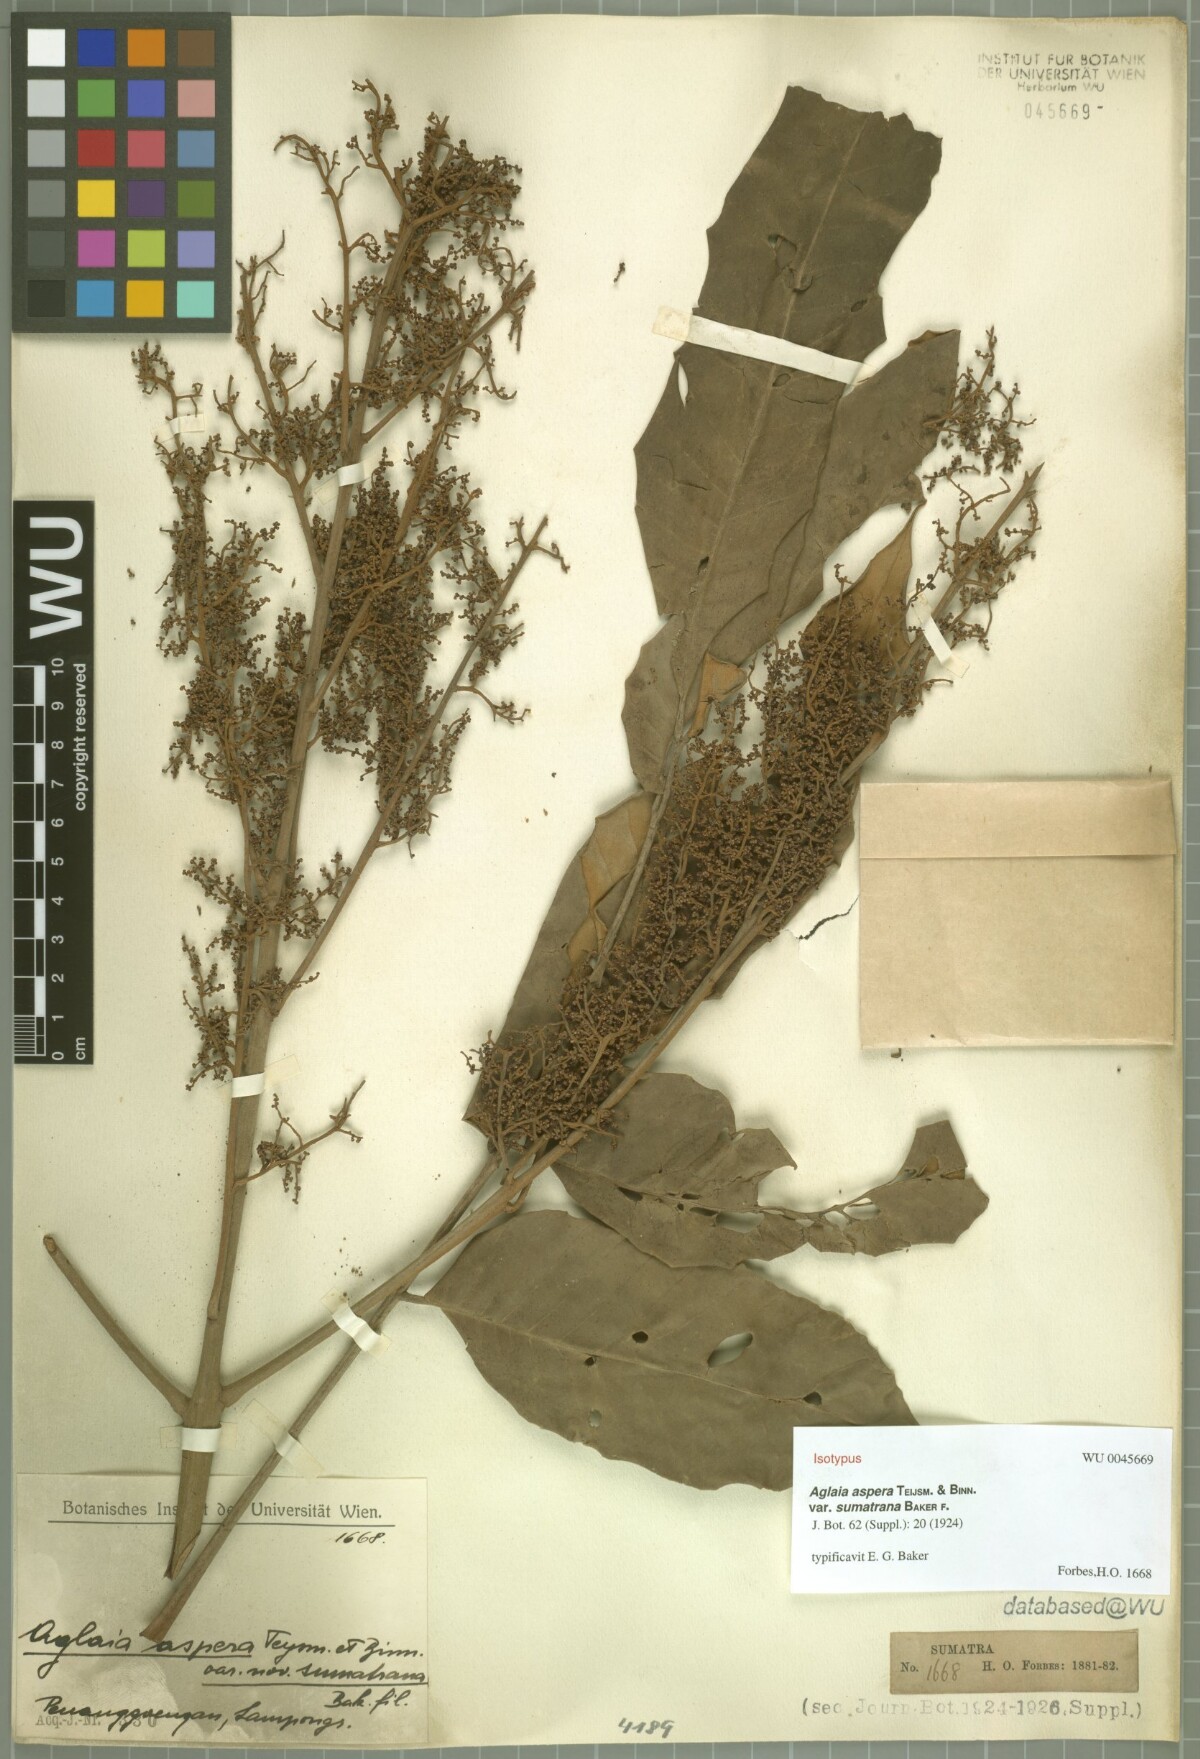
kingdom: Plantae
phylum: Tracheophyta
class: Magnoliopsida
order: Sapindales
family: Meliaceae
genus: Aglaia
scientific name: Aglaia sexipetala
